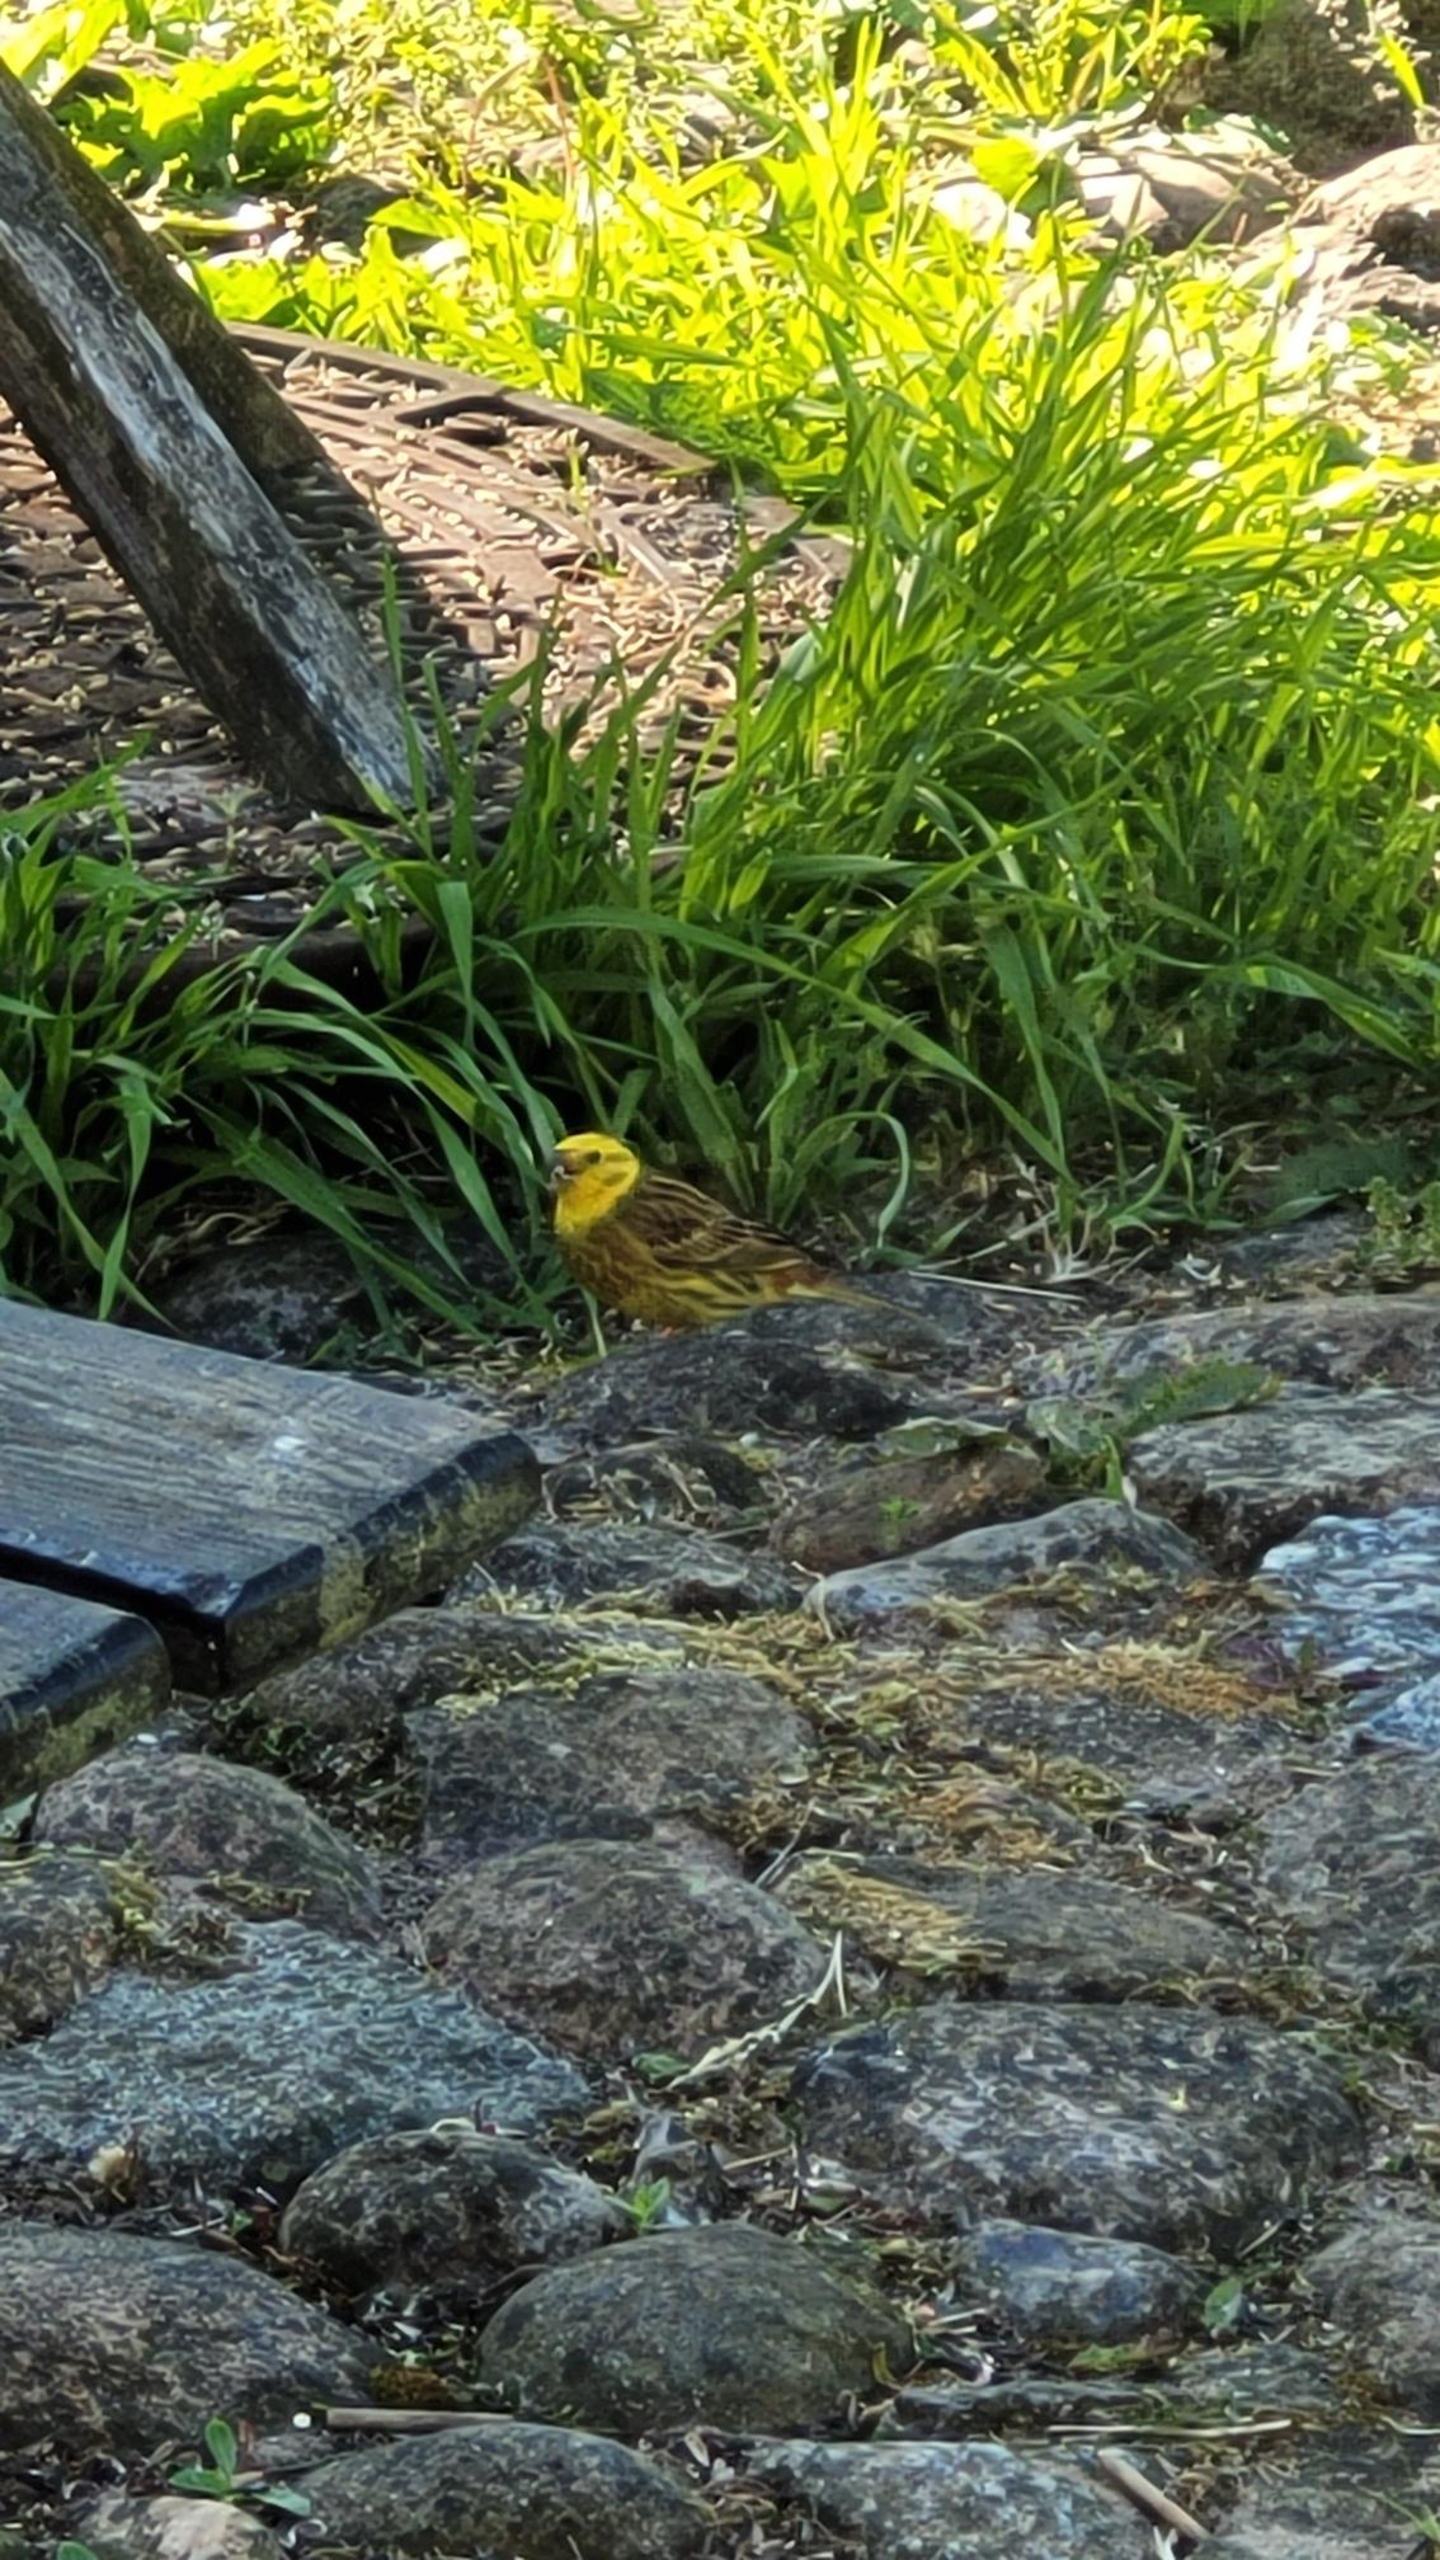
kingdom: Animalia
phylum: Chordata
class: Aves
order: Passeriformes
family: Emberizidae
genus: Emberiza
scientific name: Emberiza citrinella
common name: Gulspurv
